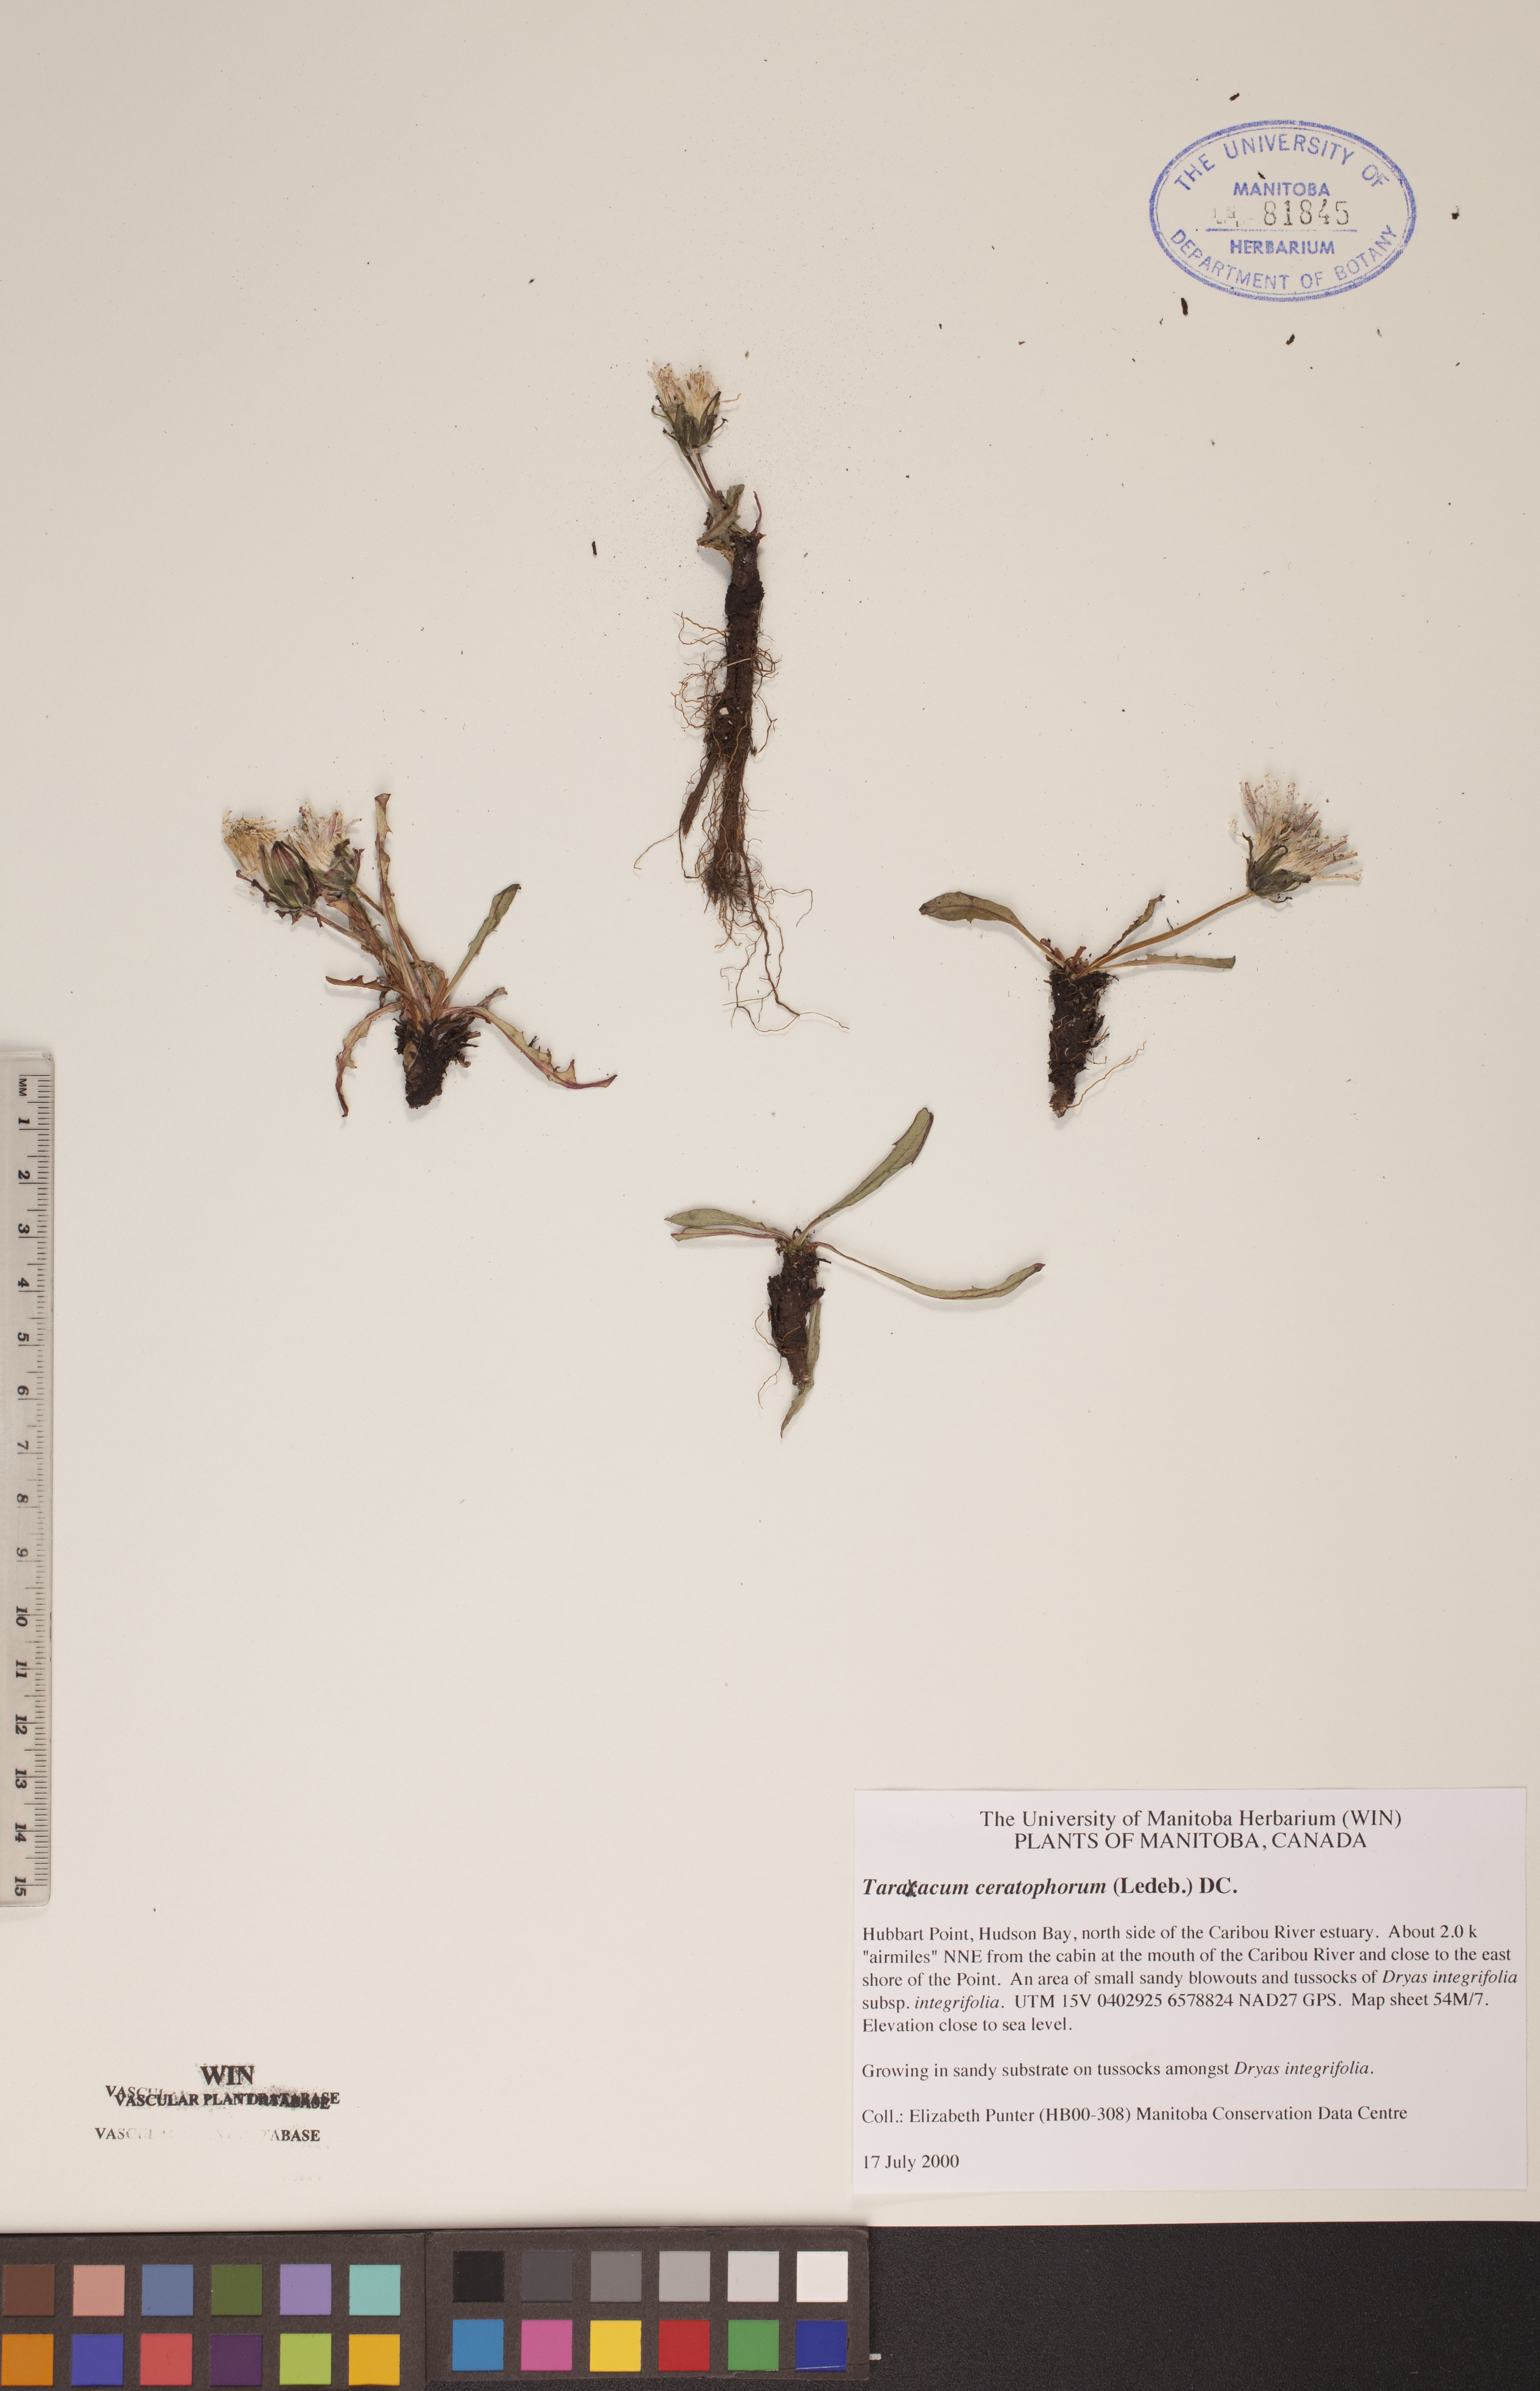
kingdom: Plantae
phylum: Tracheophyta
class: Magnoliopsida
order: Asterales
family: Asteraceae
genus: Taraxacum
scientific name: Taraxacum ceratophorum
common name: Horn-bearing dandelion
